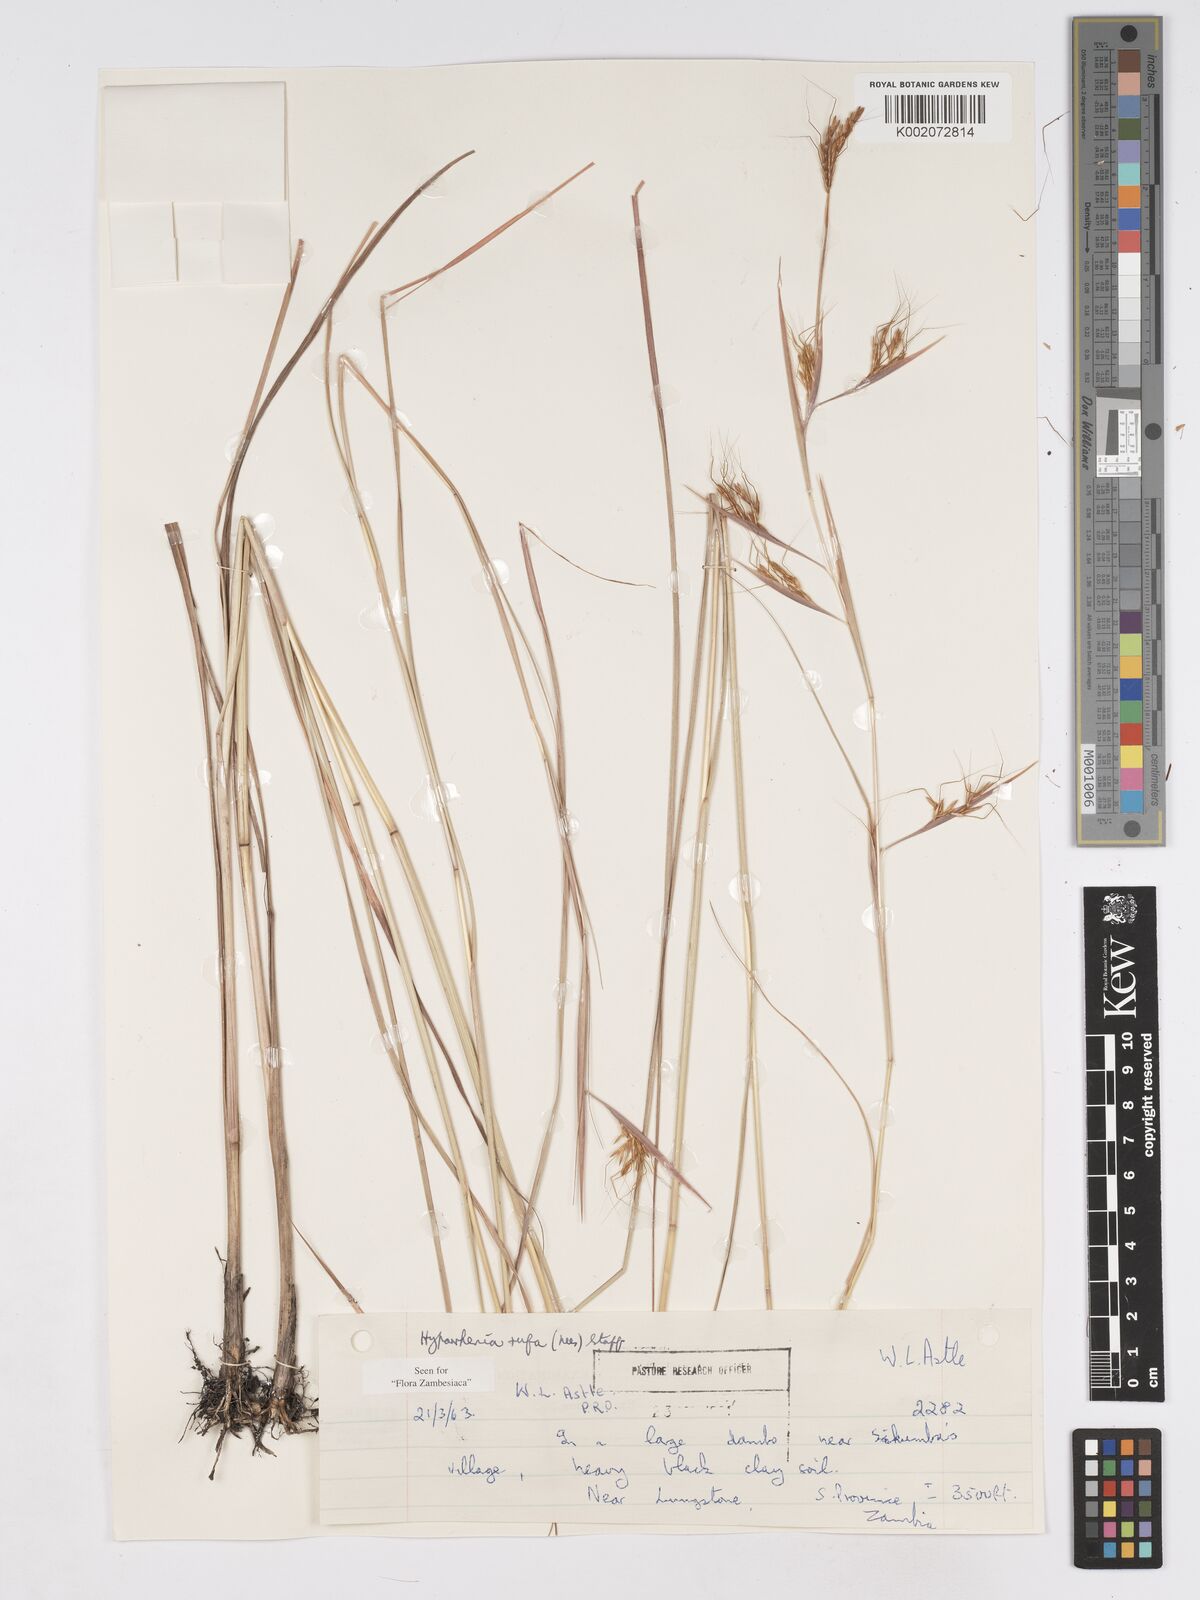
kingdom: Plantae
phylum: Tracheophyta
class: Liliopsida
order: Poales
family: Poaceae
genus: Hyparrhenia
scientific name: Hyparrhenia rufa
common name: Jaraguagrass
